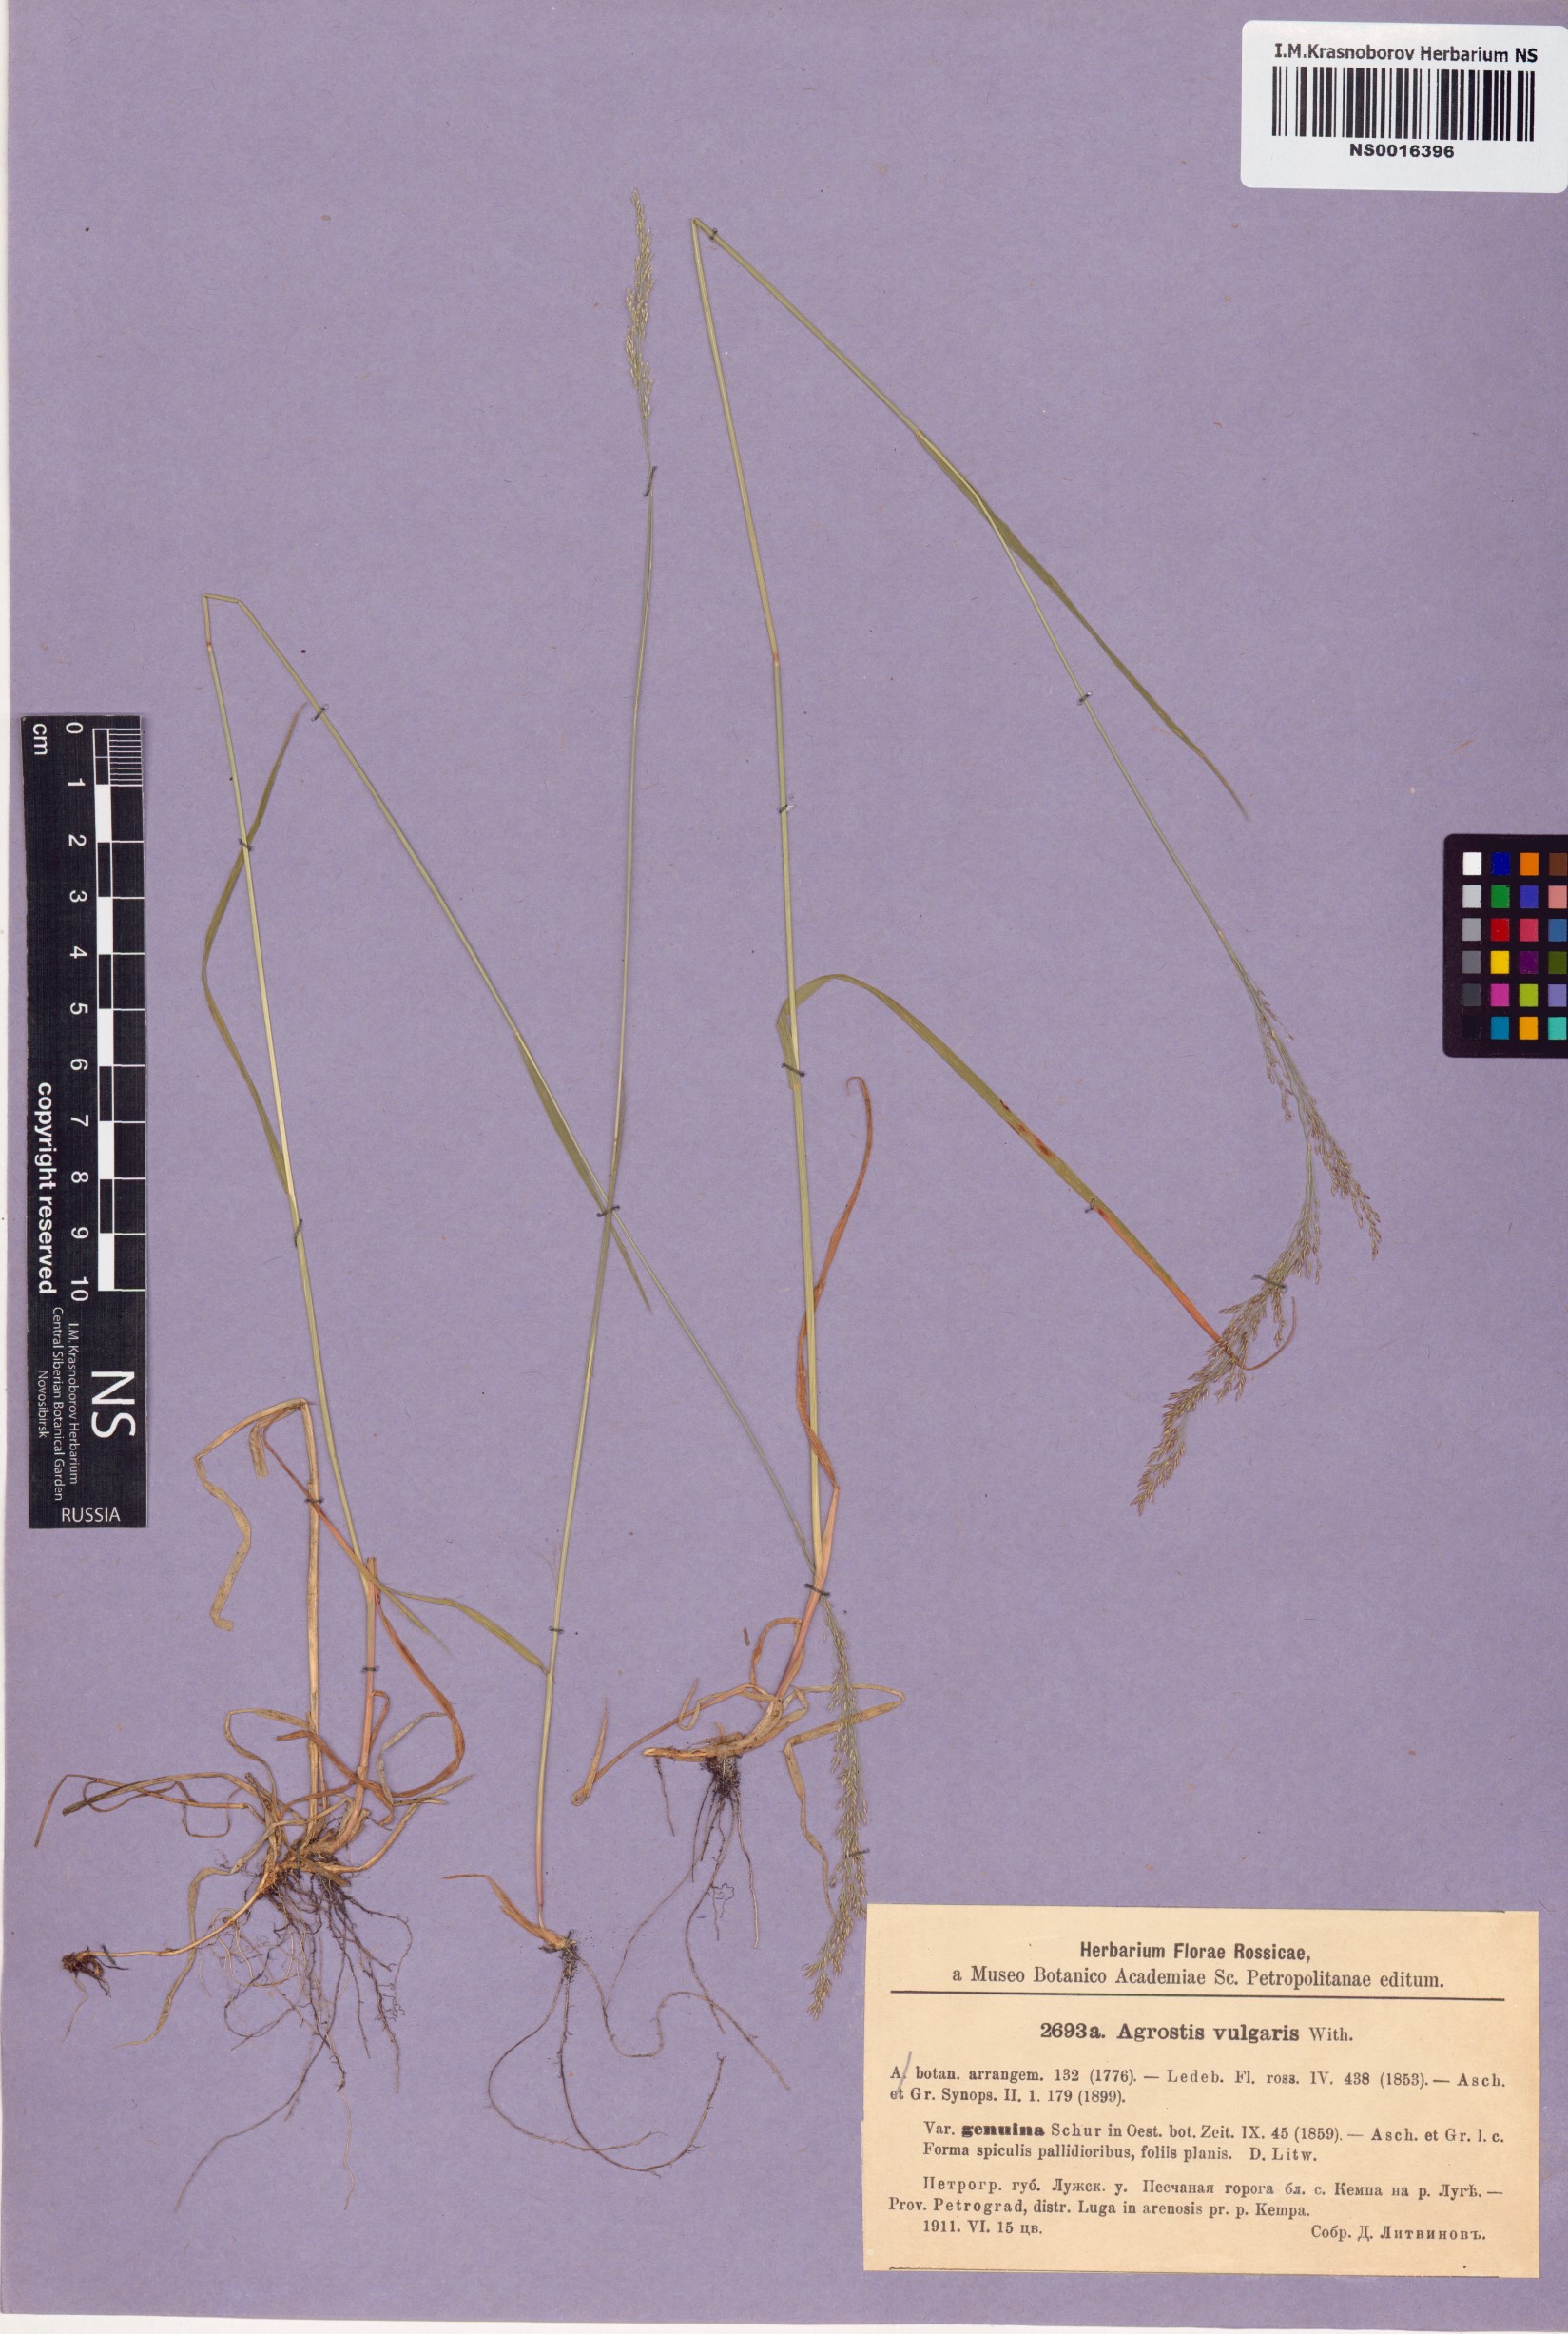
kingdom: Plantae
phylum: Tracheophyta
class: Liliopsida
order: Poales
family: Poaceae
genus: Agrostis
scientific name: Agrostis capillaris
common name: Colonial bentgrass
